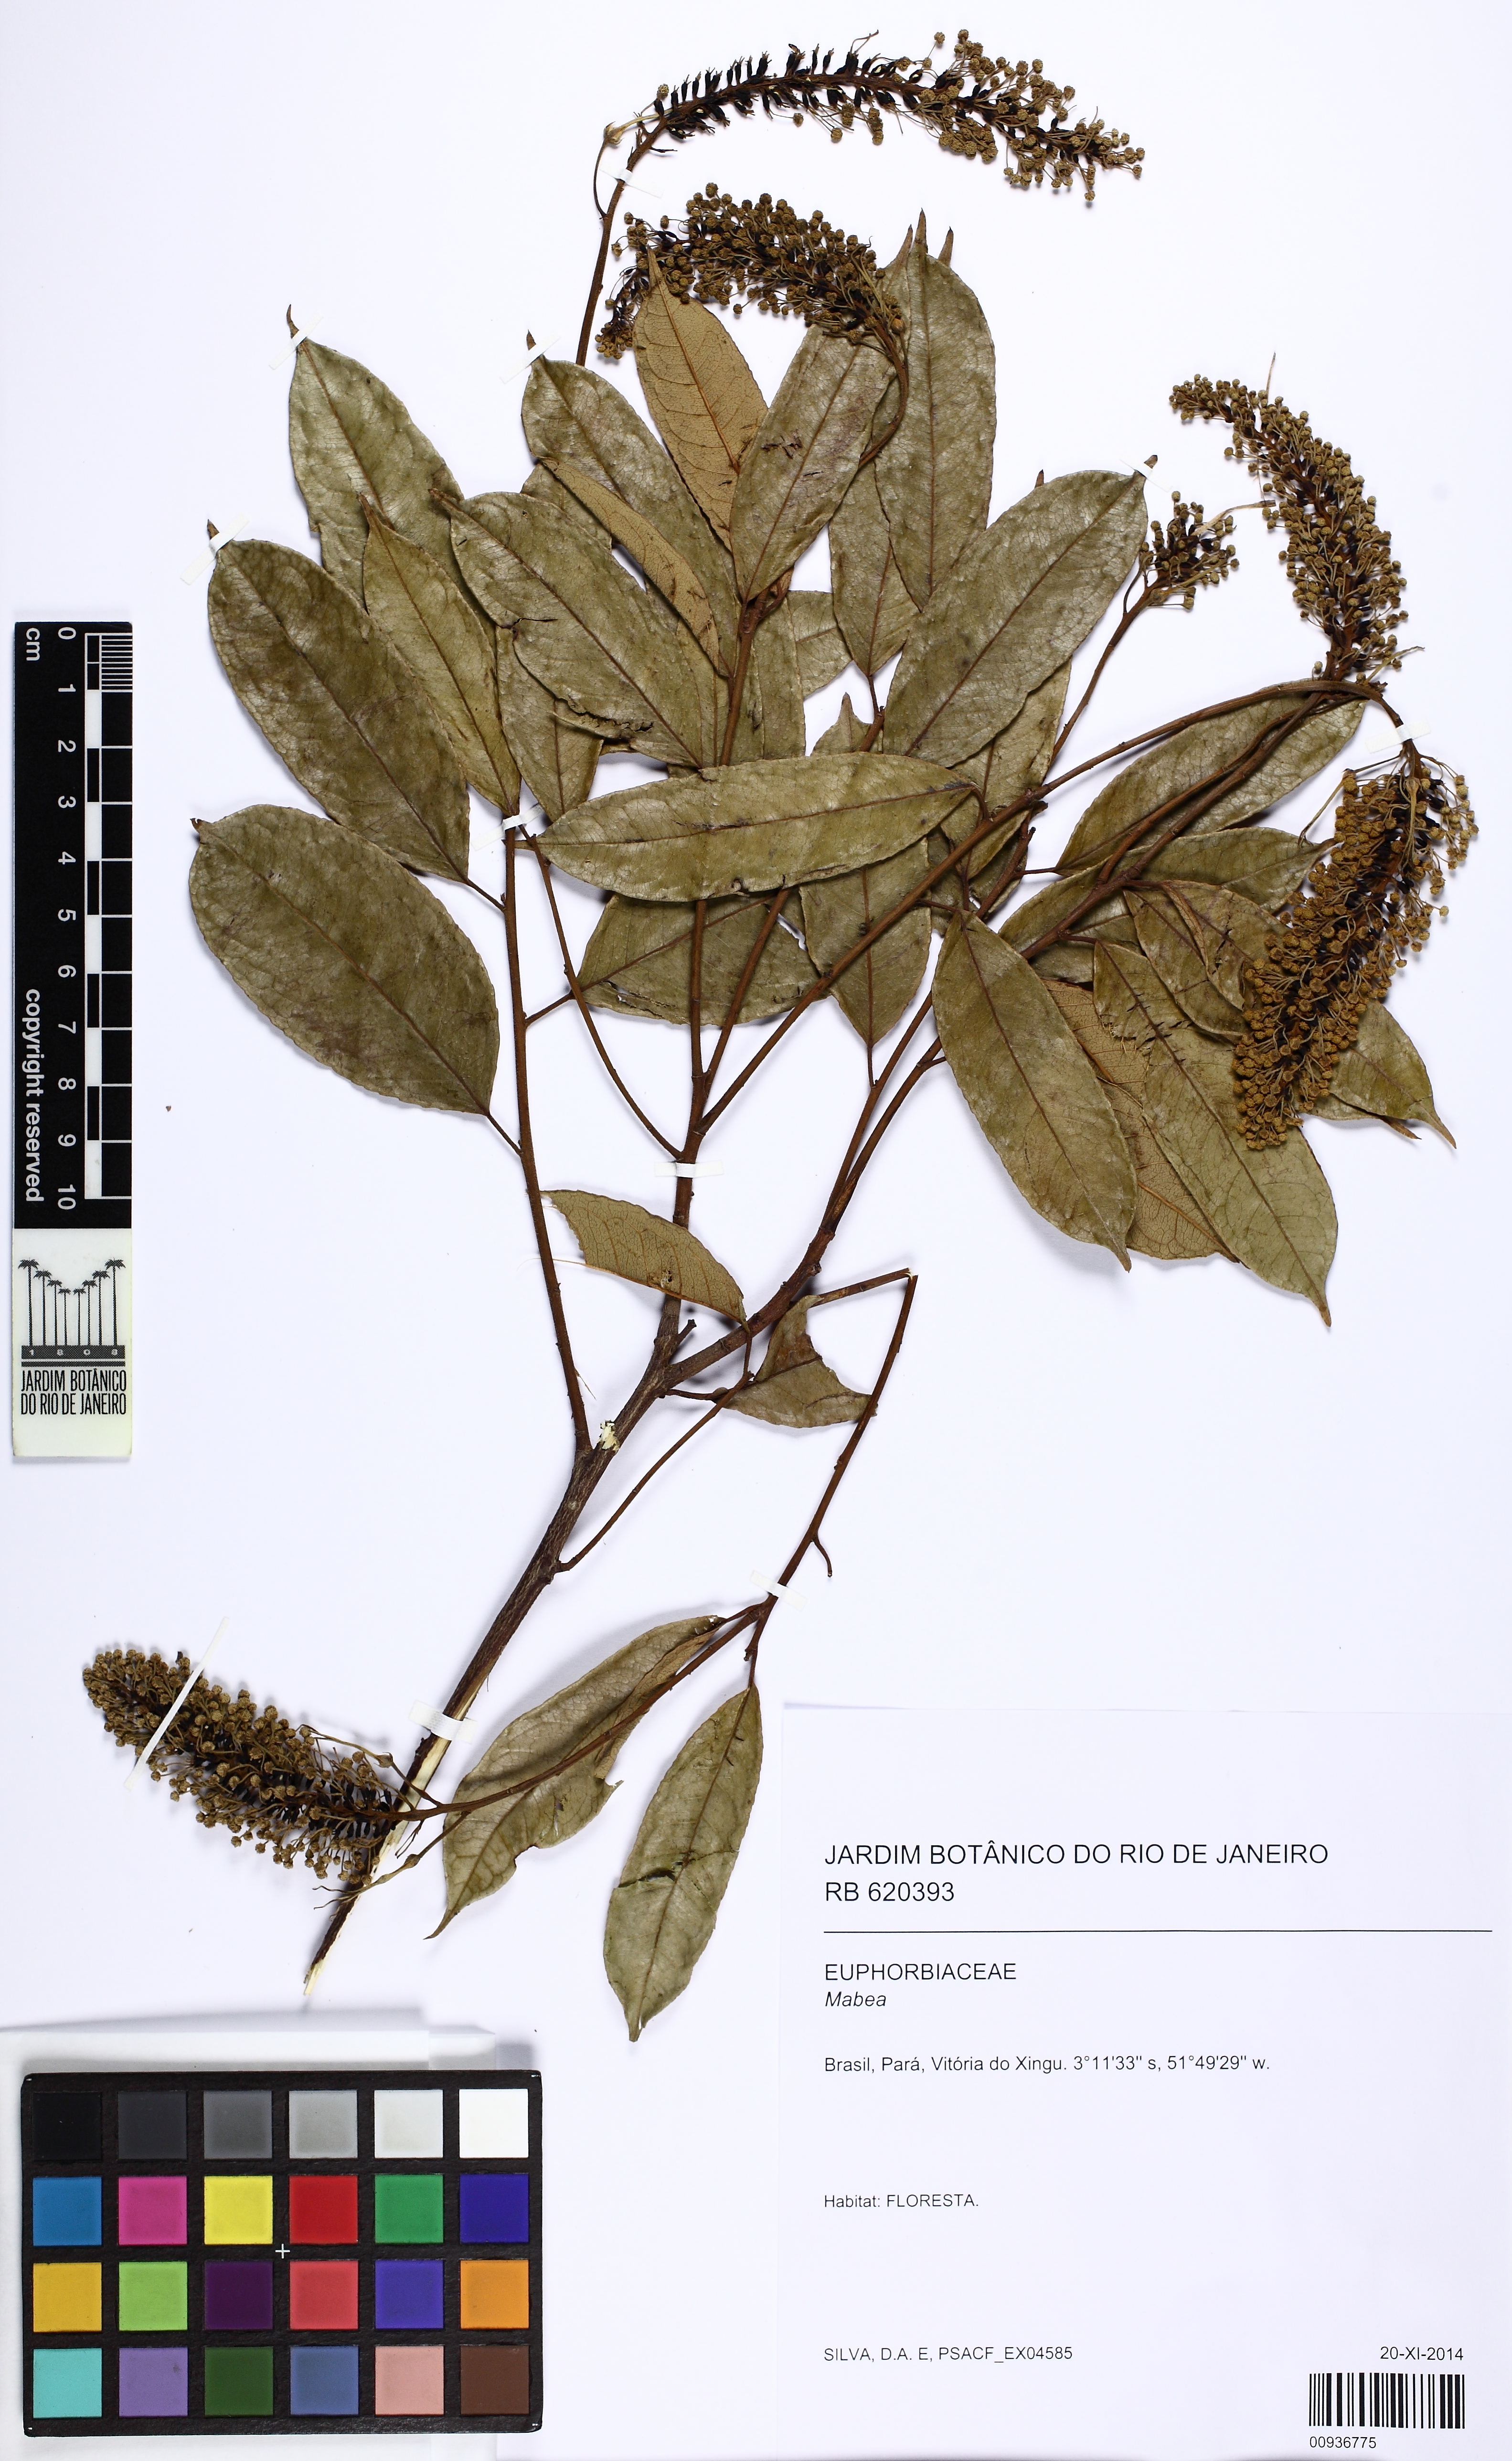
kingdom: Plantae
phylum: Tracheophyta
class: Magnoliopsida
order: Malpighiales
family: Euphorbiaceae
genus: Mabea
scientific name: Mabea speciosa
